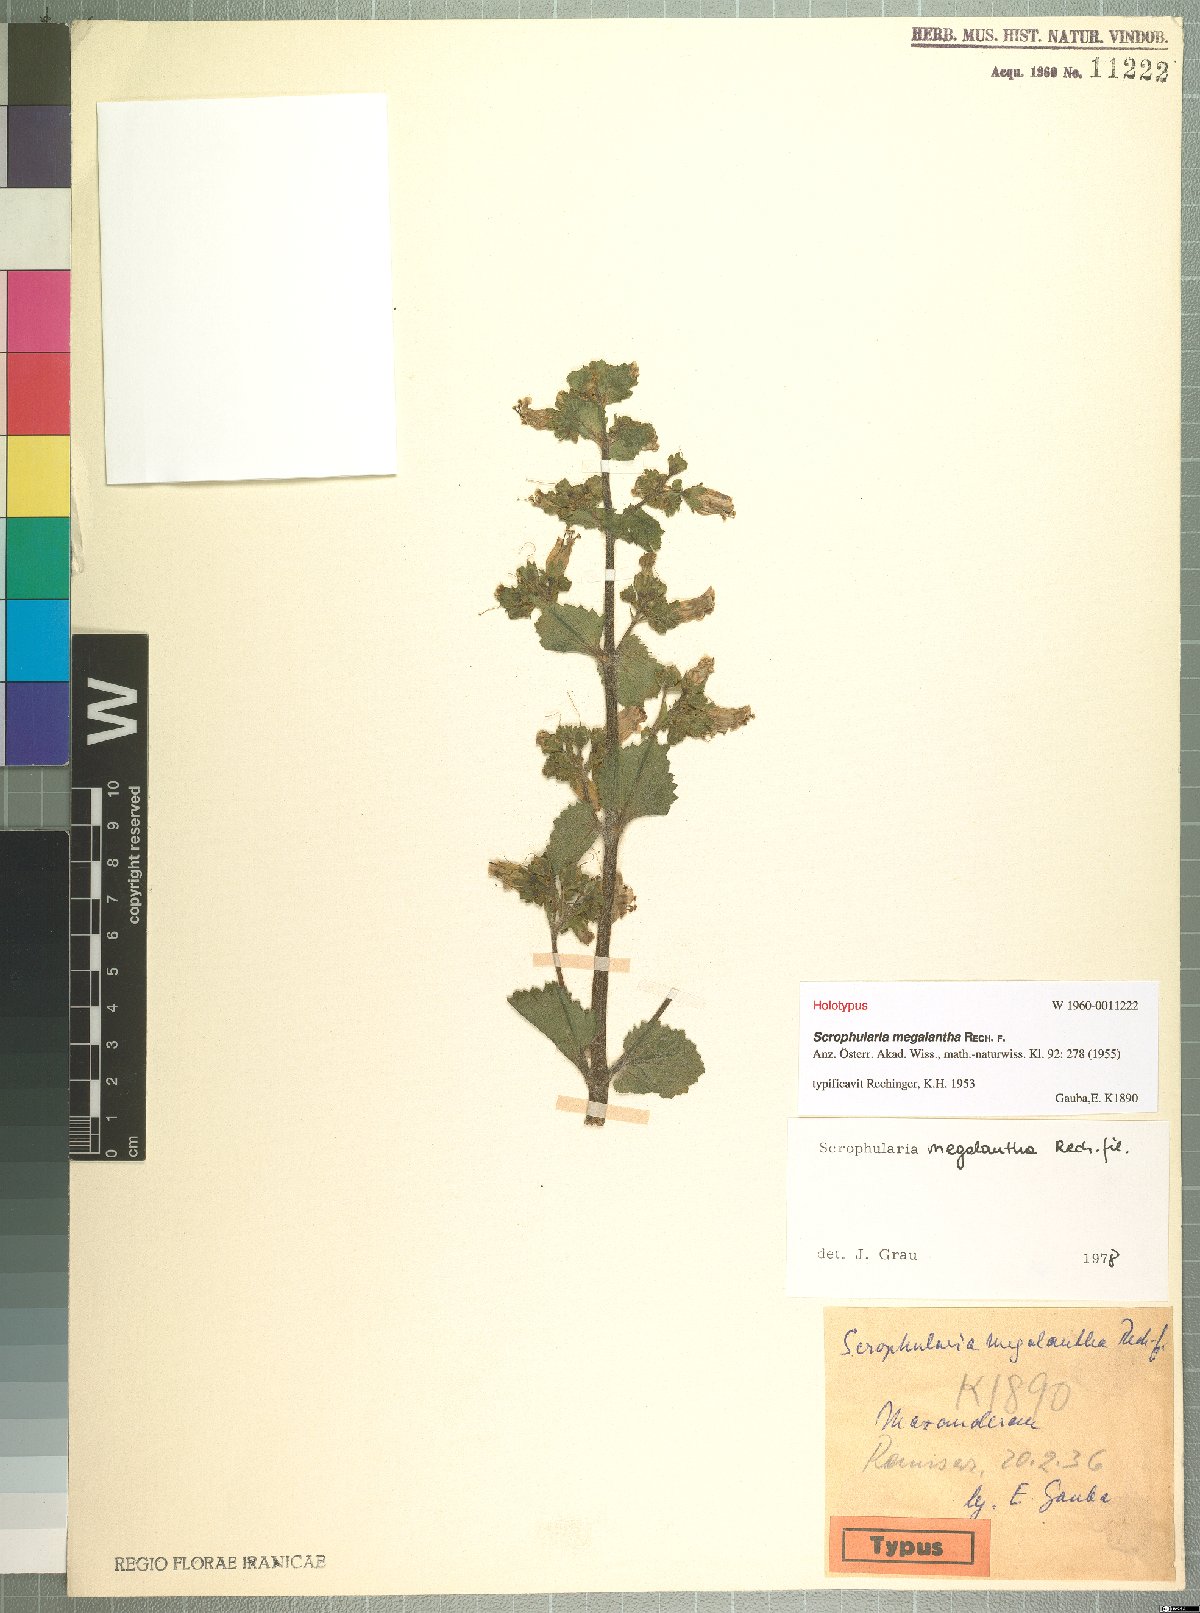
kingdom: Plantae
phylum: Tracheophyta
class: Magnoliopsida
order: Lamiales
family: Scrophulariaceae
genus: Scrophularia
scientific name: Scrophularia megalantha
